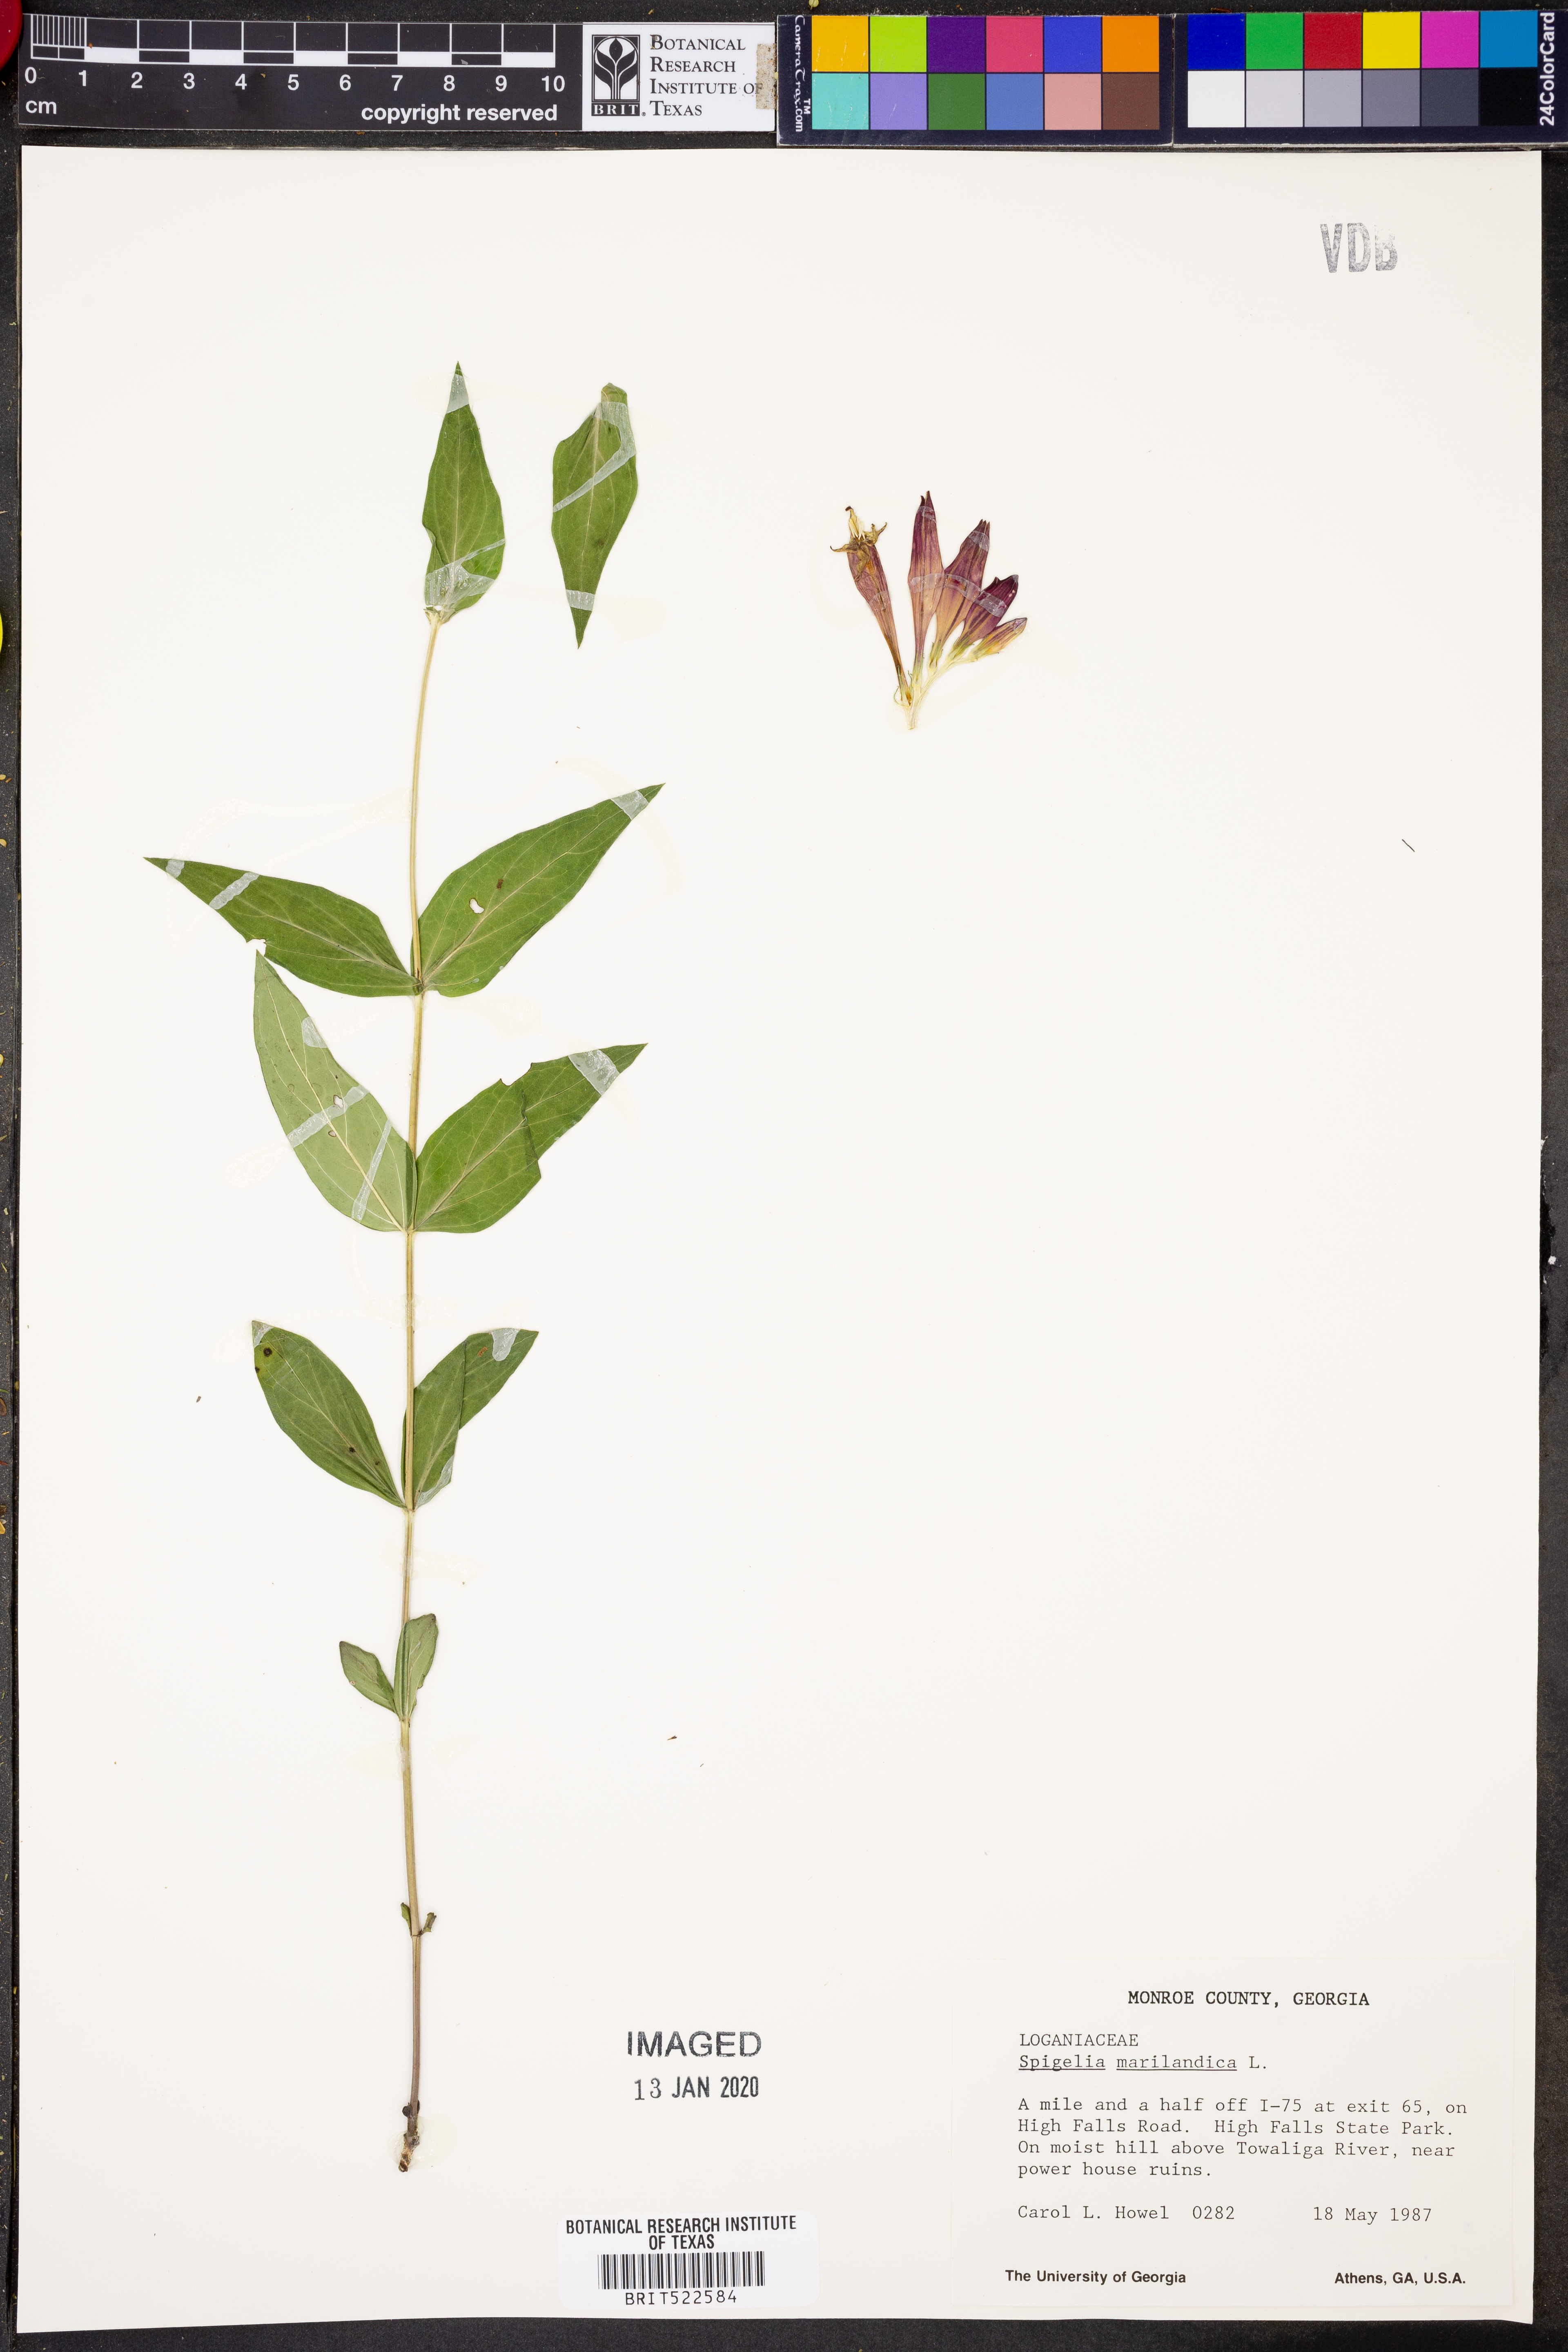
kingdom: Plantae
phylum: Tracheophyta
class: Magnoliopsida
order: Gentianales
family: Loganiaceae
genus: Spigelia
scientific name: Spigelia marilandica
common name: Indian-pink
